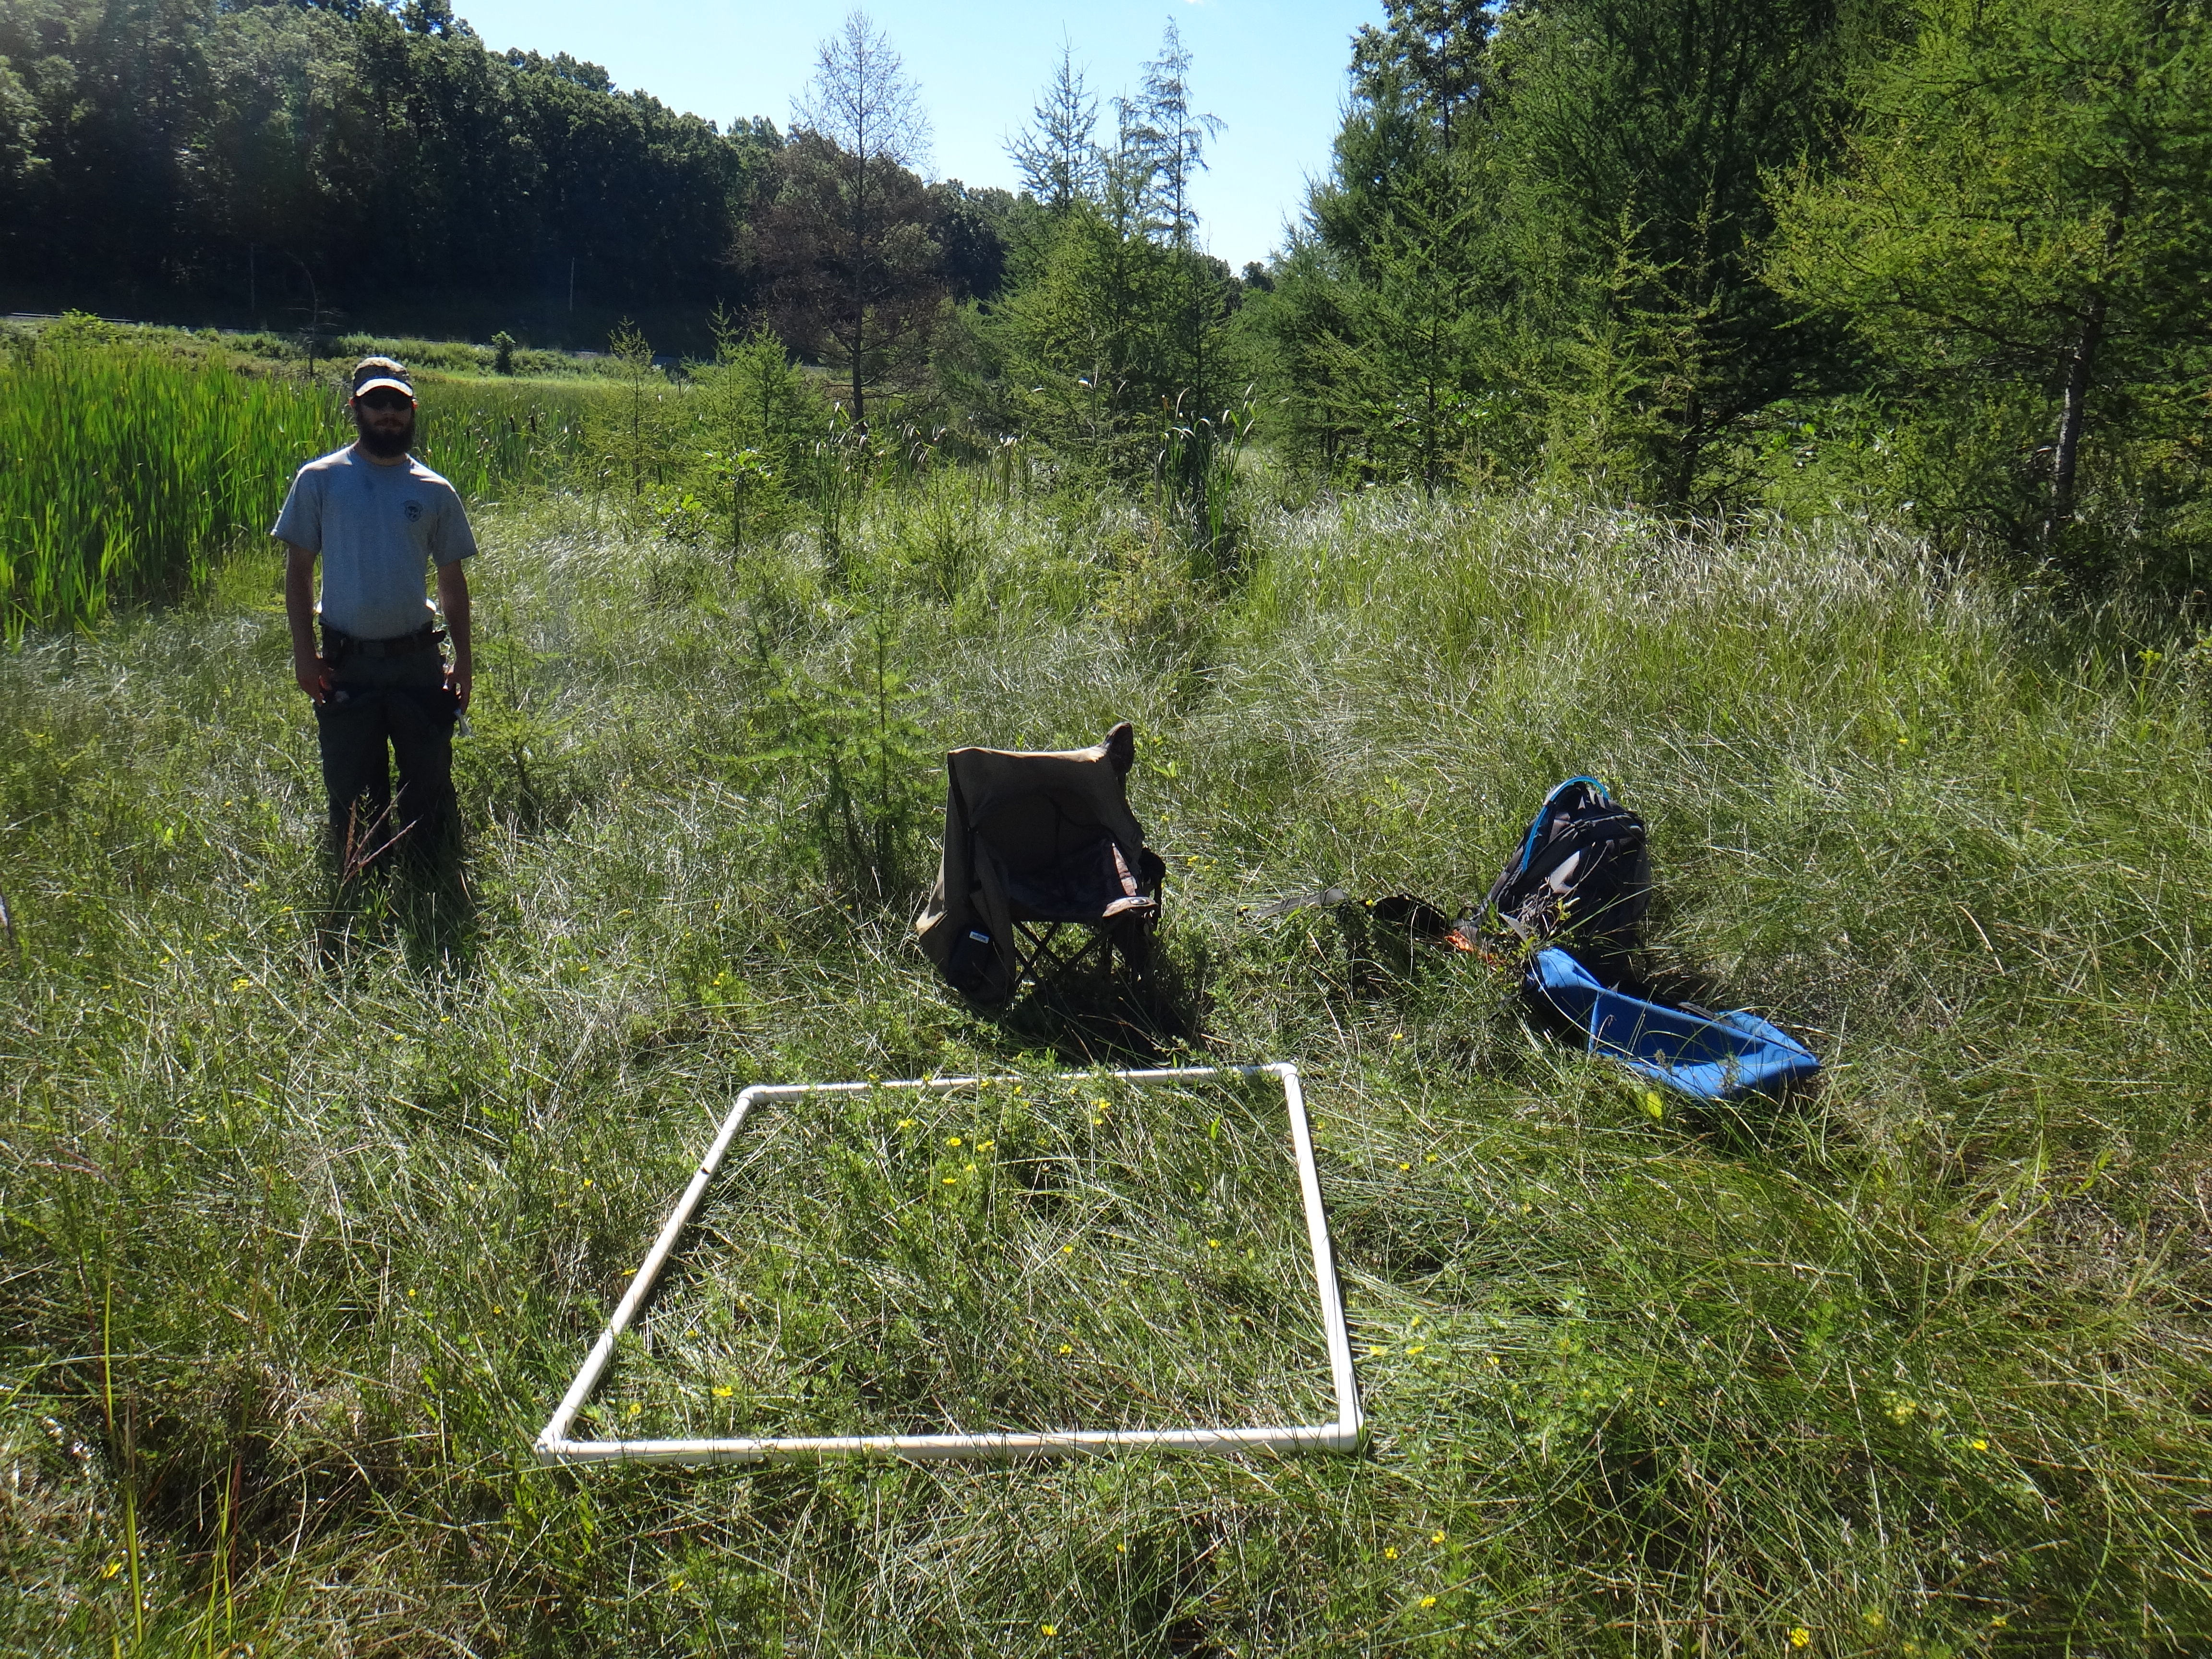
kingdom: Plantae
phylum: Tracheophyta
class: Liliopsida
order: Poales
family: Poaceae
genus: Andropogon
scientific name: Andropogon gerardi
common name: Big bluestem
